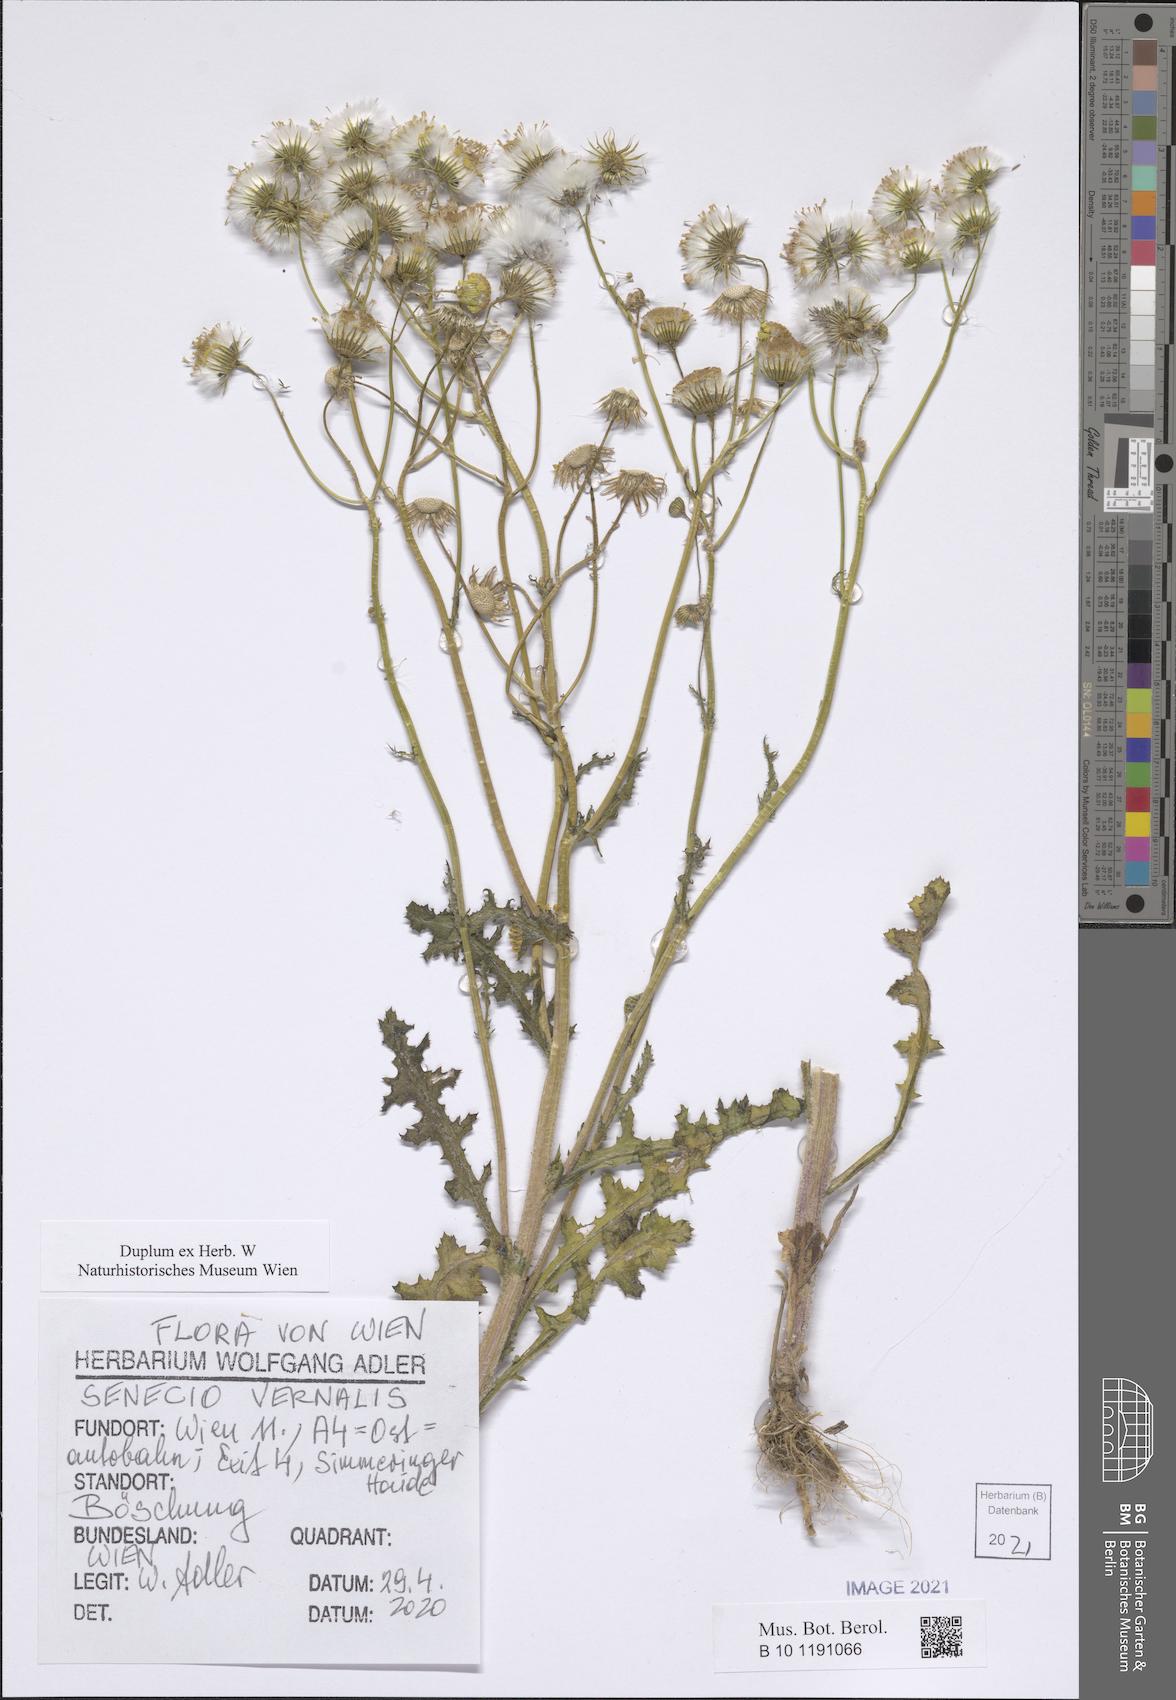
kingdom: Plantae
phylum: Tracheophyta
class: Magnoliopsida
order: Asterales
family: Asteraceae
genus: Senecio
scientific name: Senecio vernalis
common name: Eastern groundsel
